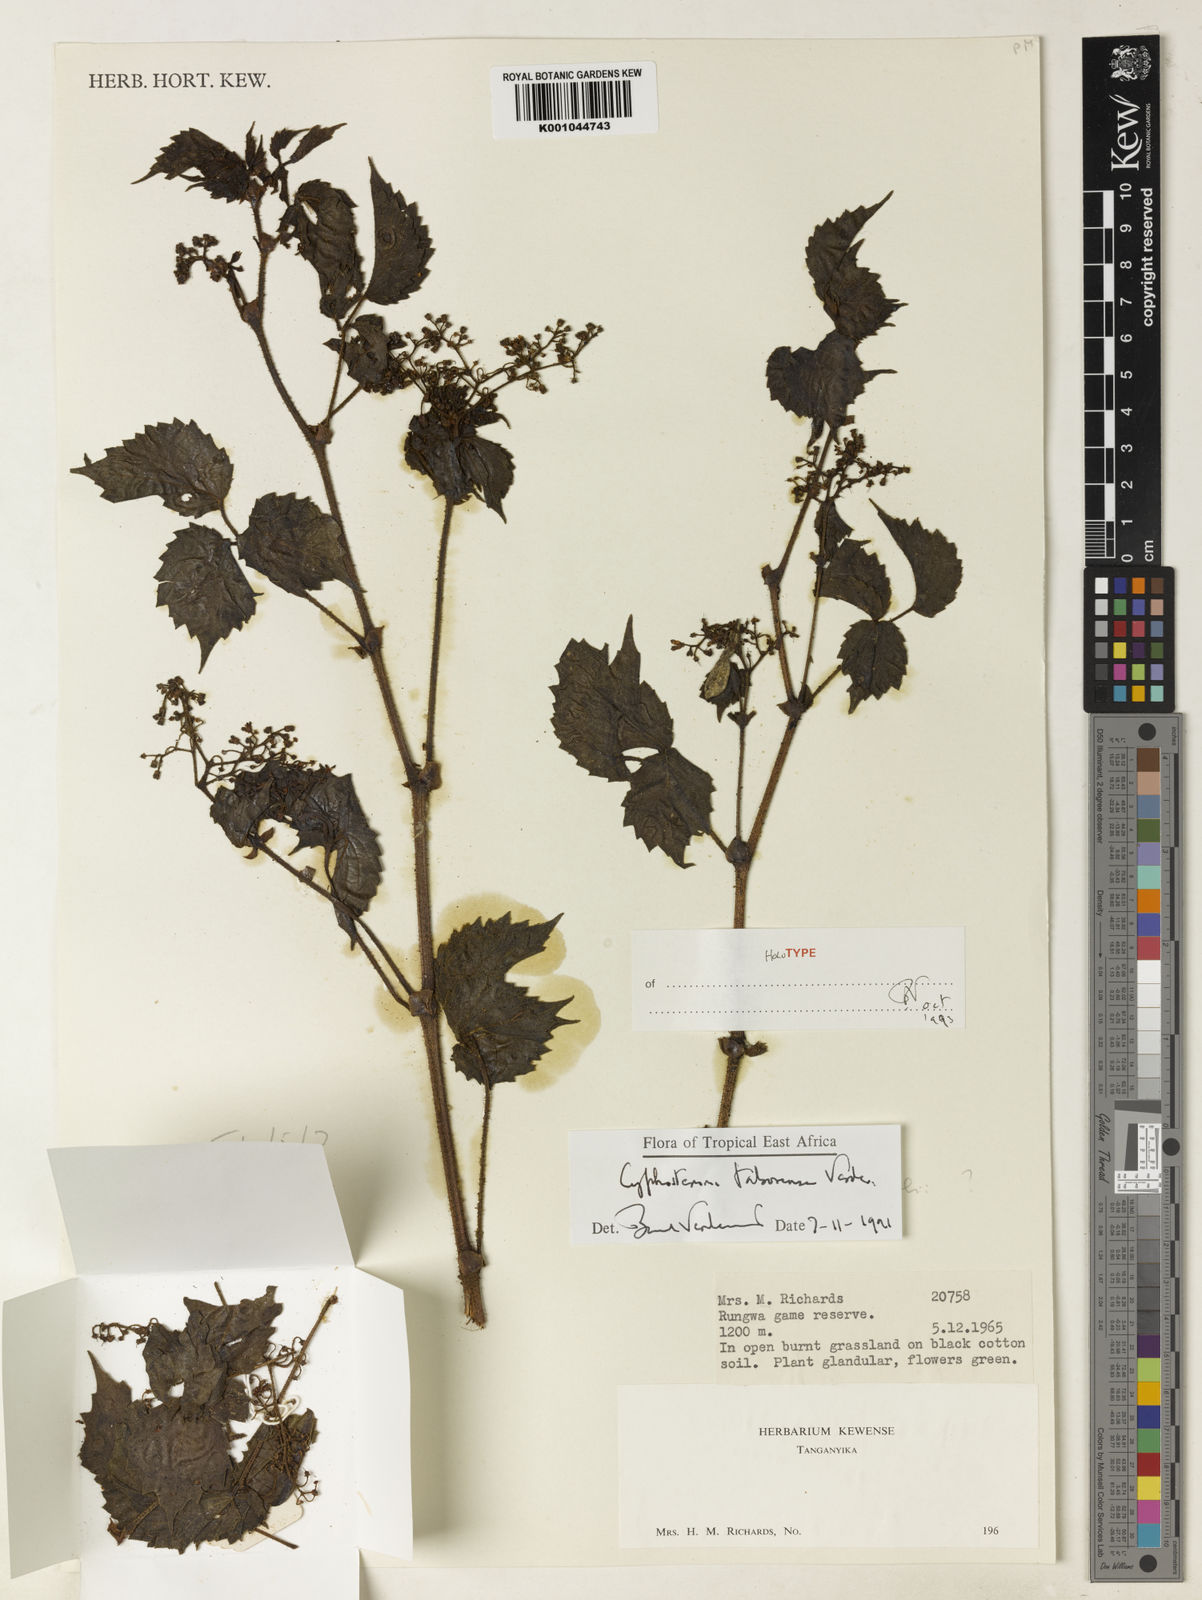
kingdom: Plantae
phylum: Tracheophyta
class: Magnoliopsida
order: Vitales
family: Vitaceae
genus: Cyphostemma
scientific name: Cyphostemma taborense
